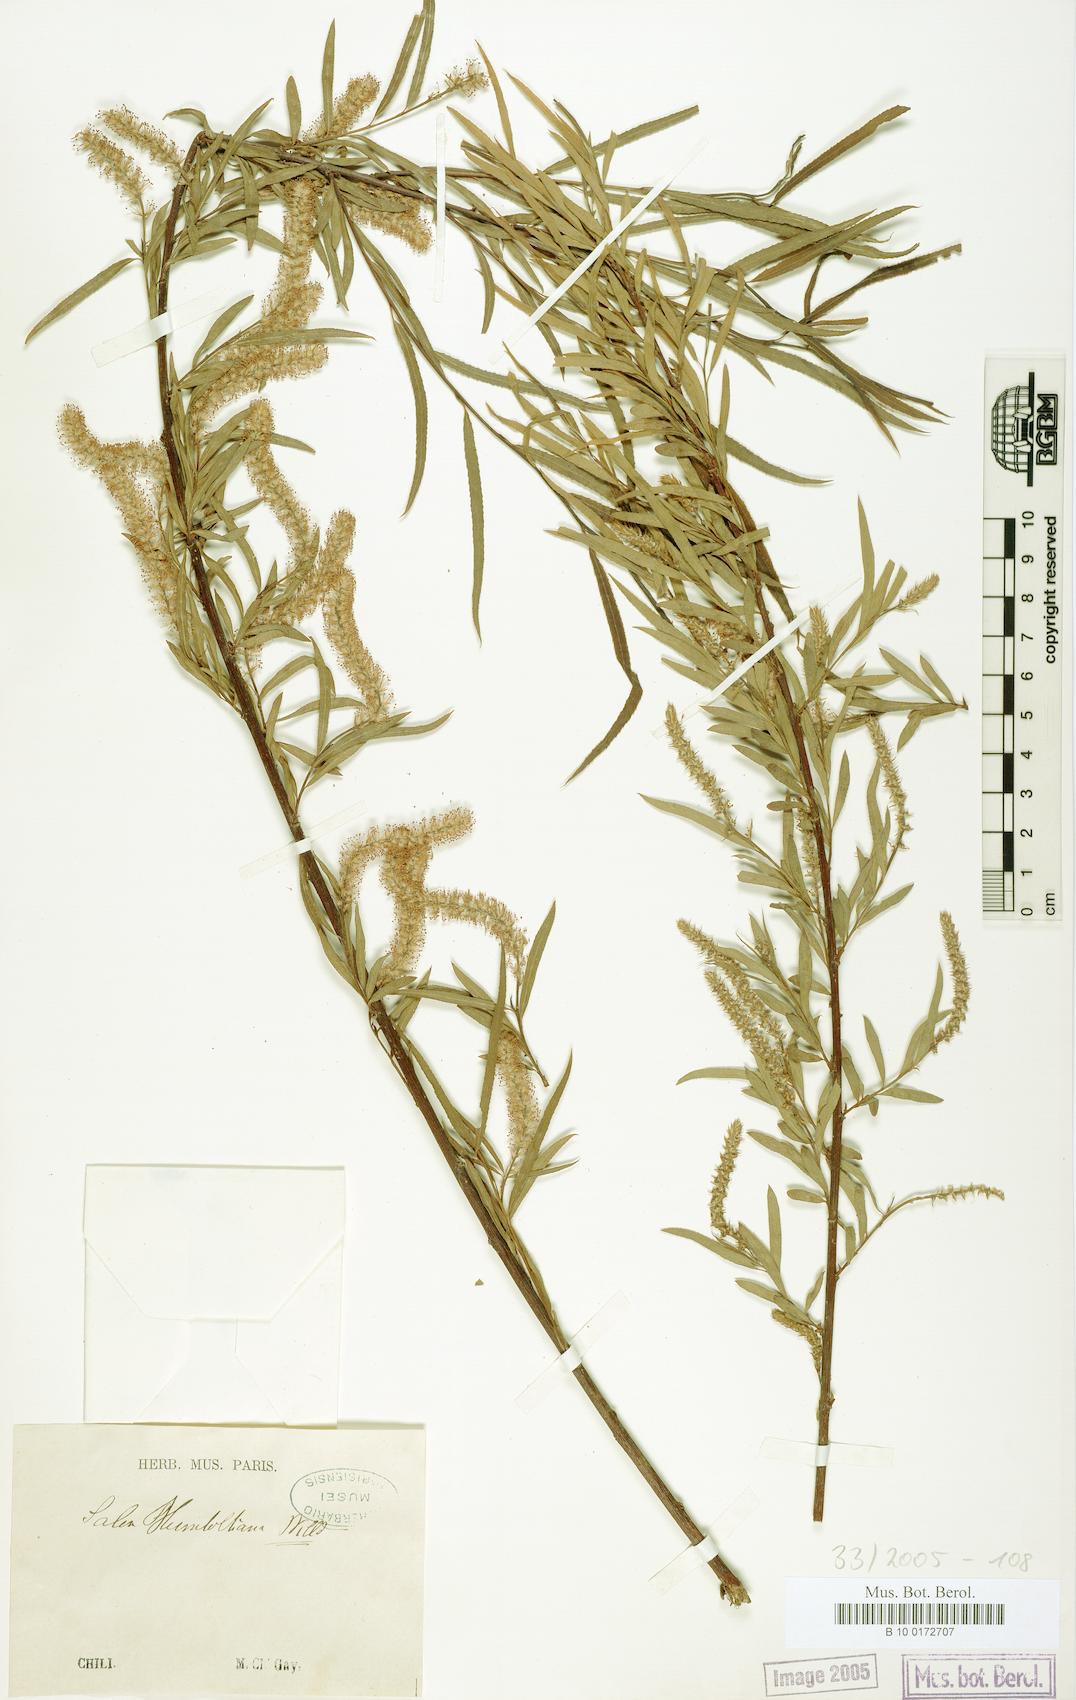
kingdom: Plantae
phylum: Tracheophyta
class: Magnoliopsida
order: Malpighiales
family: Salicaceae
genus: Salix
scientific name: Salix humboldtiana
